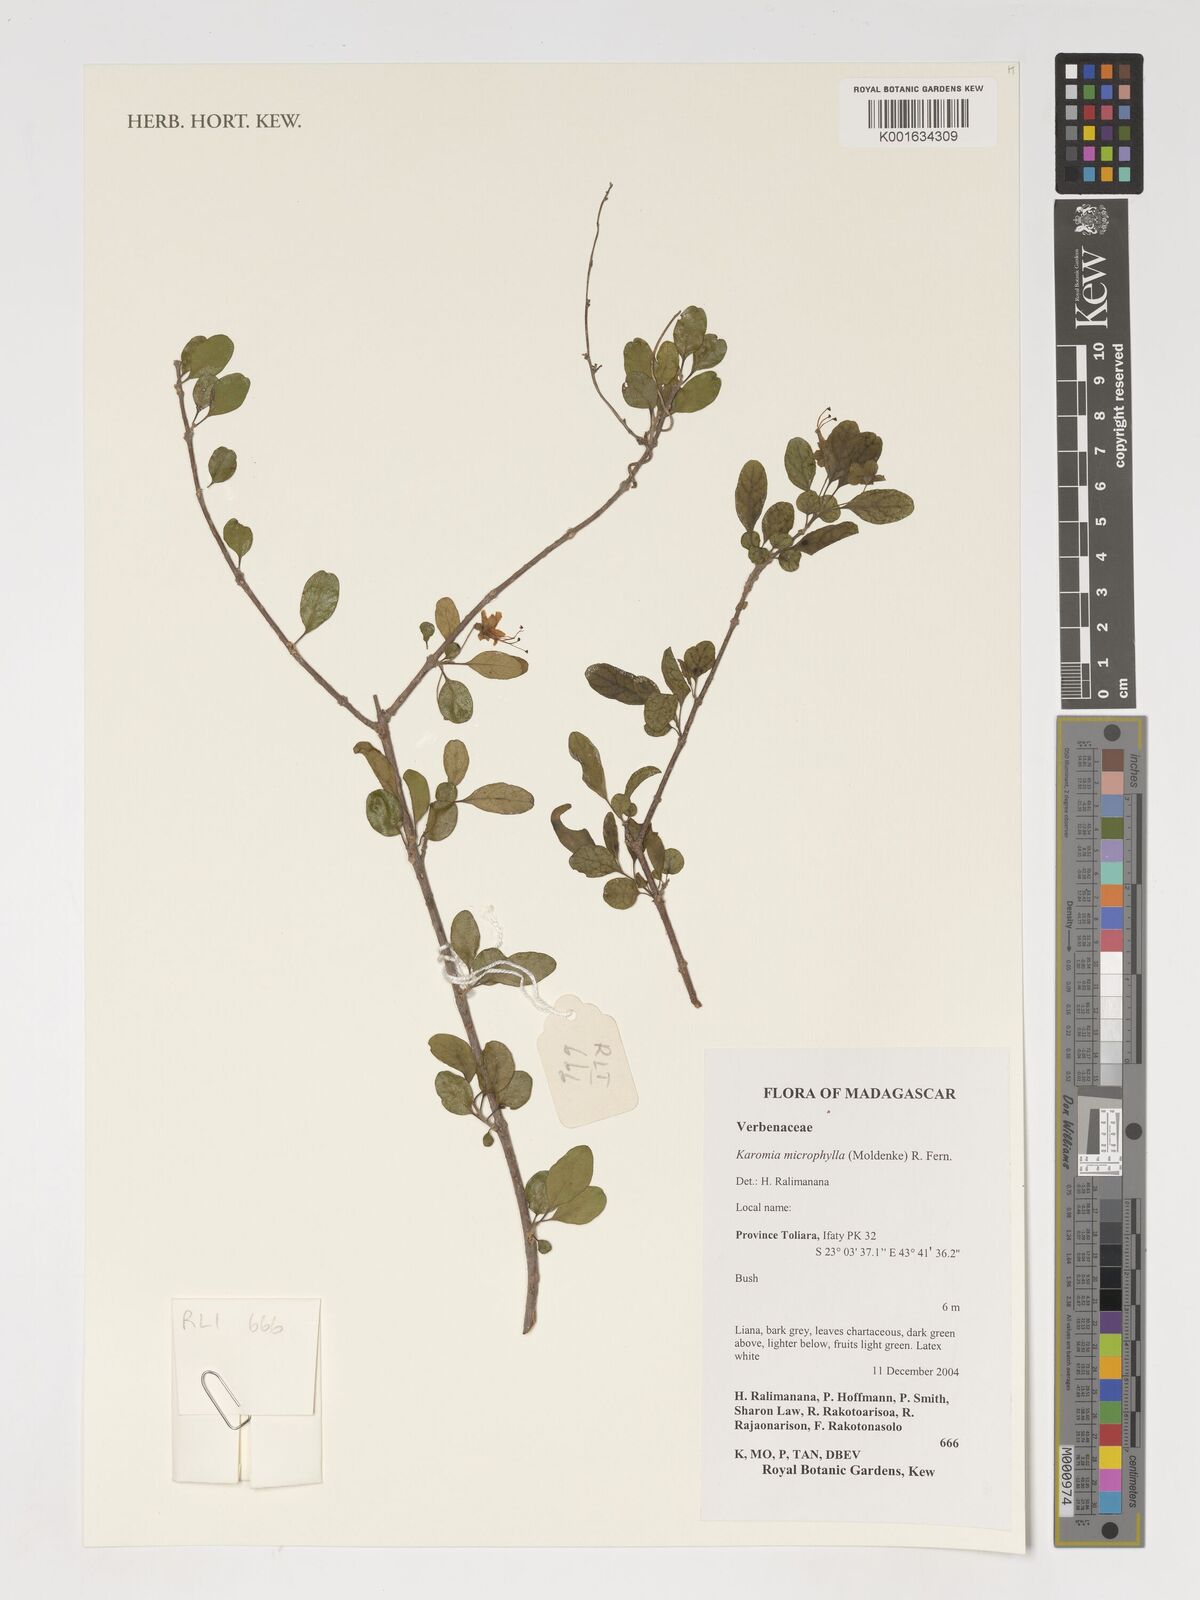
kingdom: Plantae
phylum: Tracheophyta
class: Magnoliopsida
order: Lamiales
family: Lamiaceae
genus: Karomia
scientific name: Karomia microphylla
